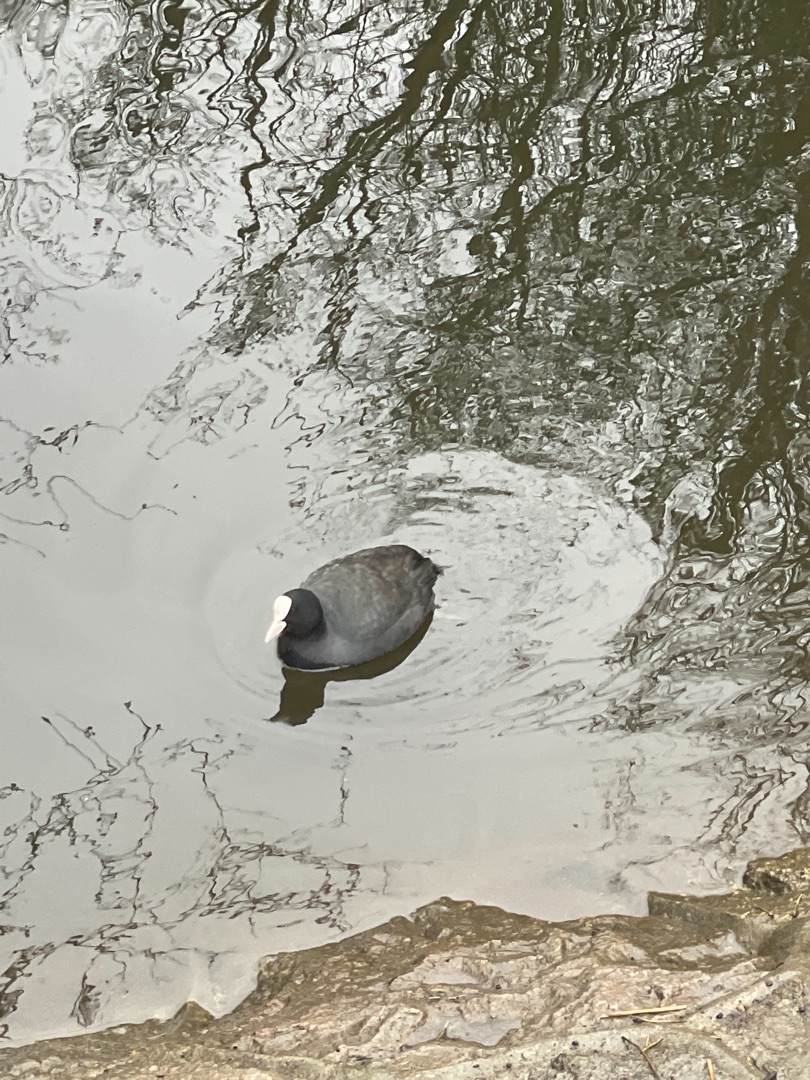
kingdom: Animalia
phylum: Chordata
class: Aves
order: Gruiformes
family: Rallidae
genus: Fulica
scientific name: Fulica atra
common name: Blishøne
